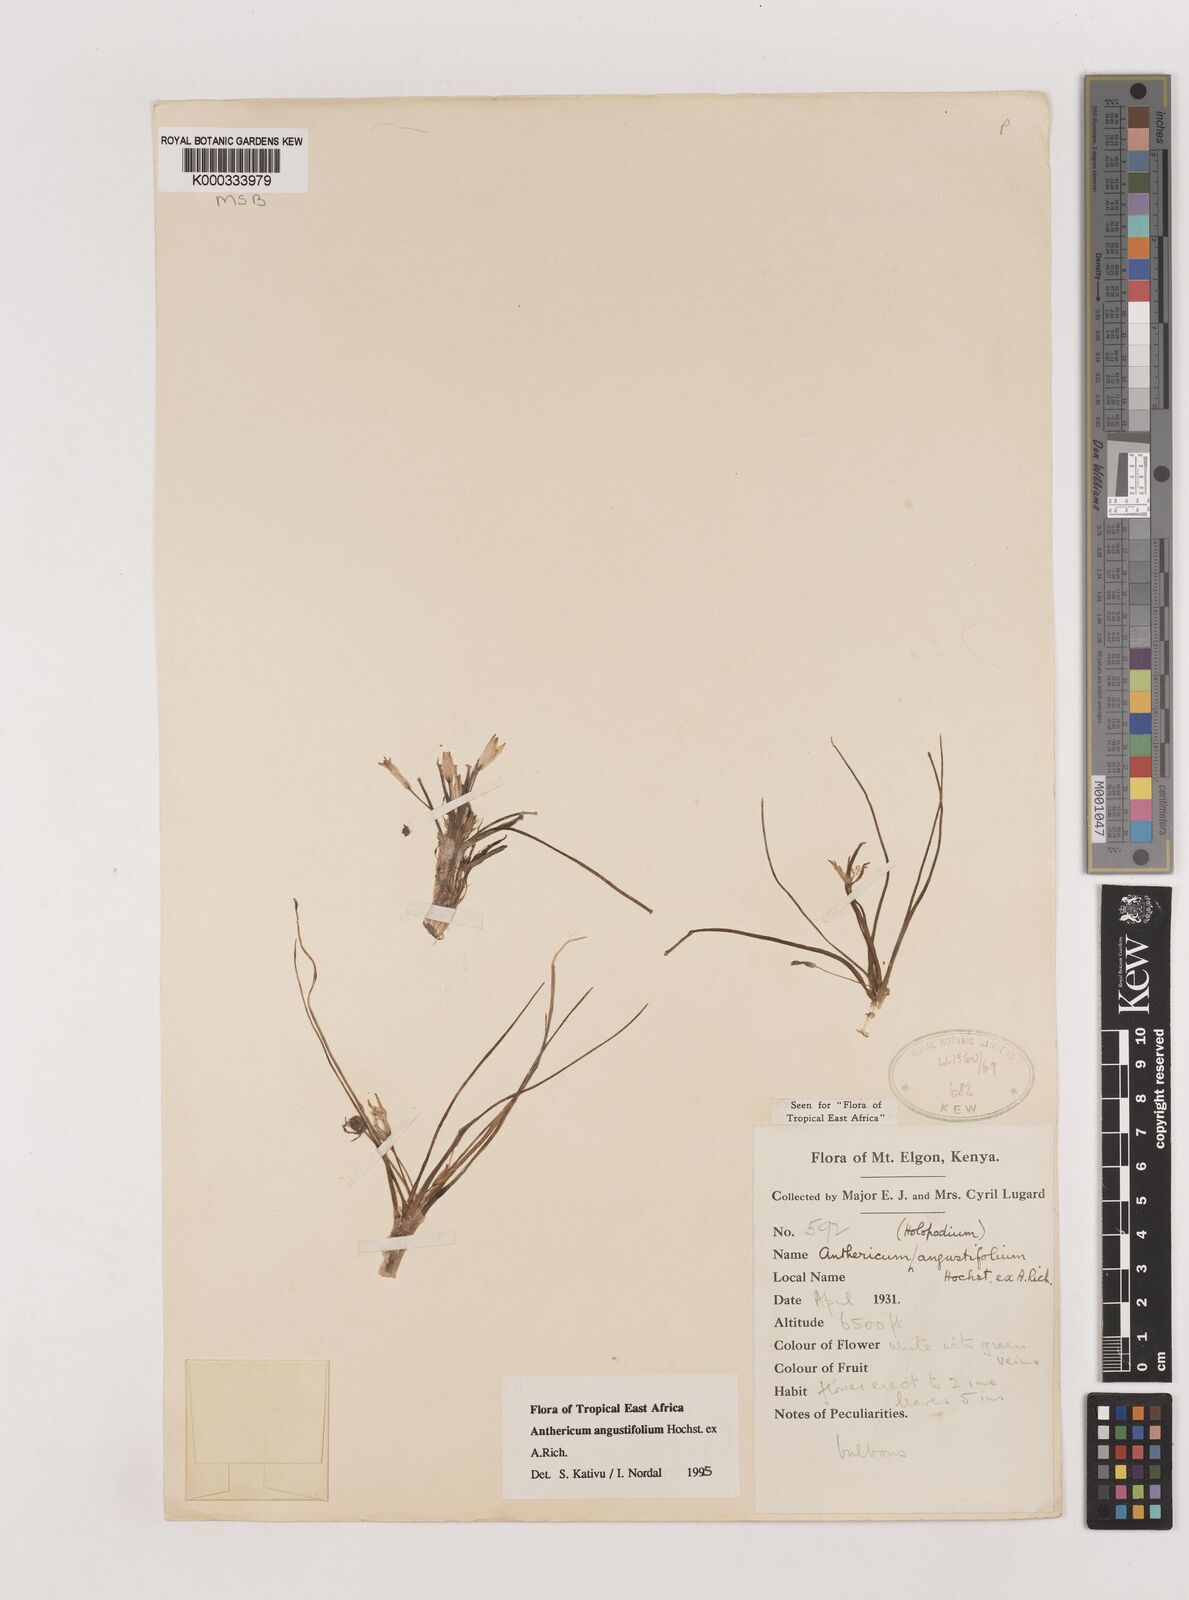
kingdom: Plantae
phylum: Tracheophyta
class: Liliopsida
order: Asparagales
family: Asparagaceae
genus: Anthericum
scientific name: Anthericum angustifolium
